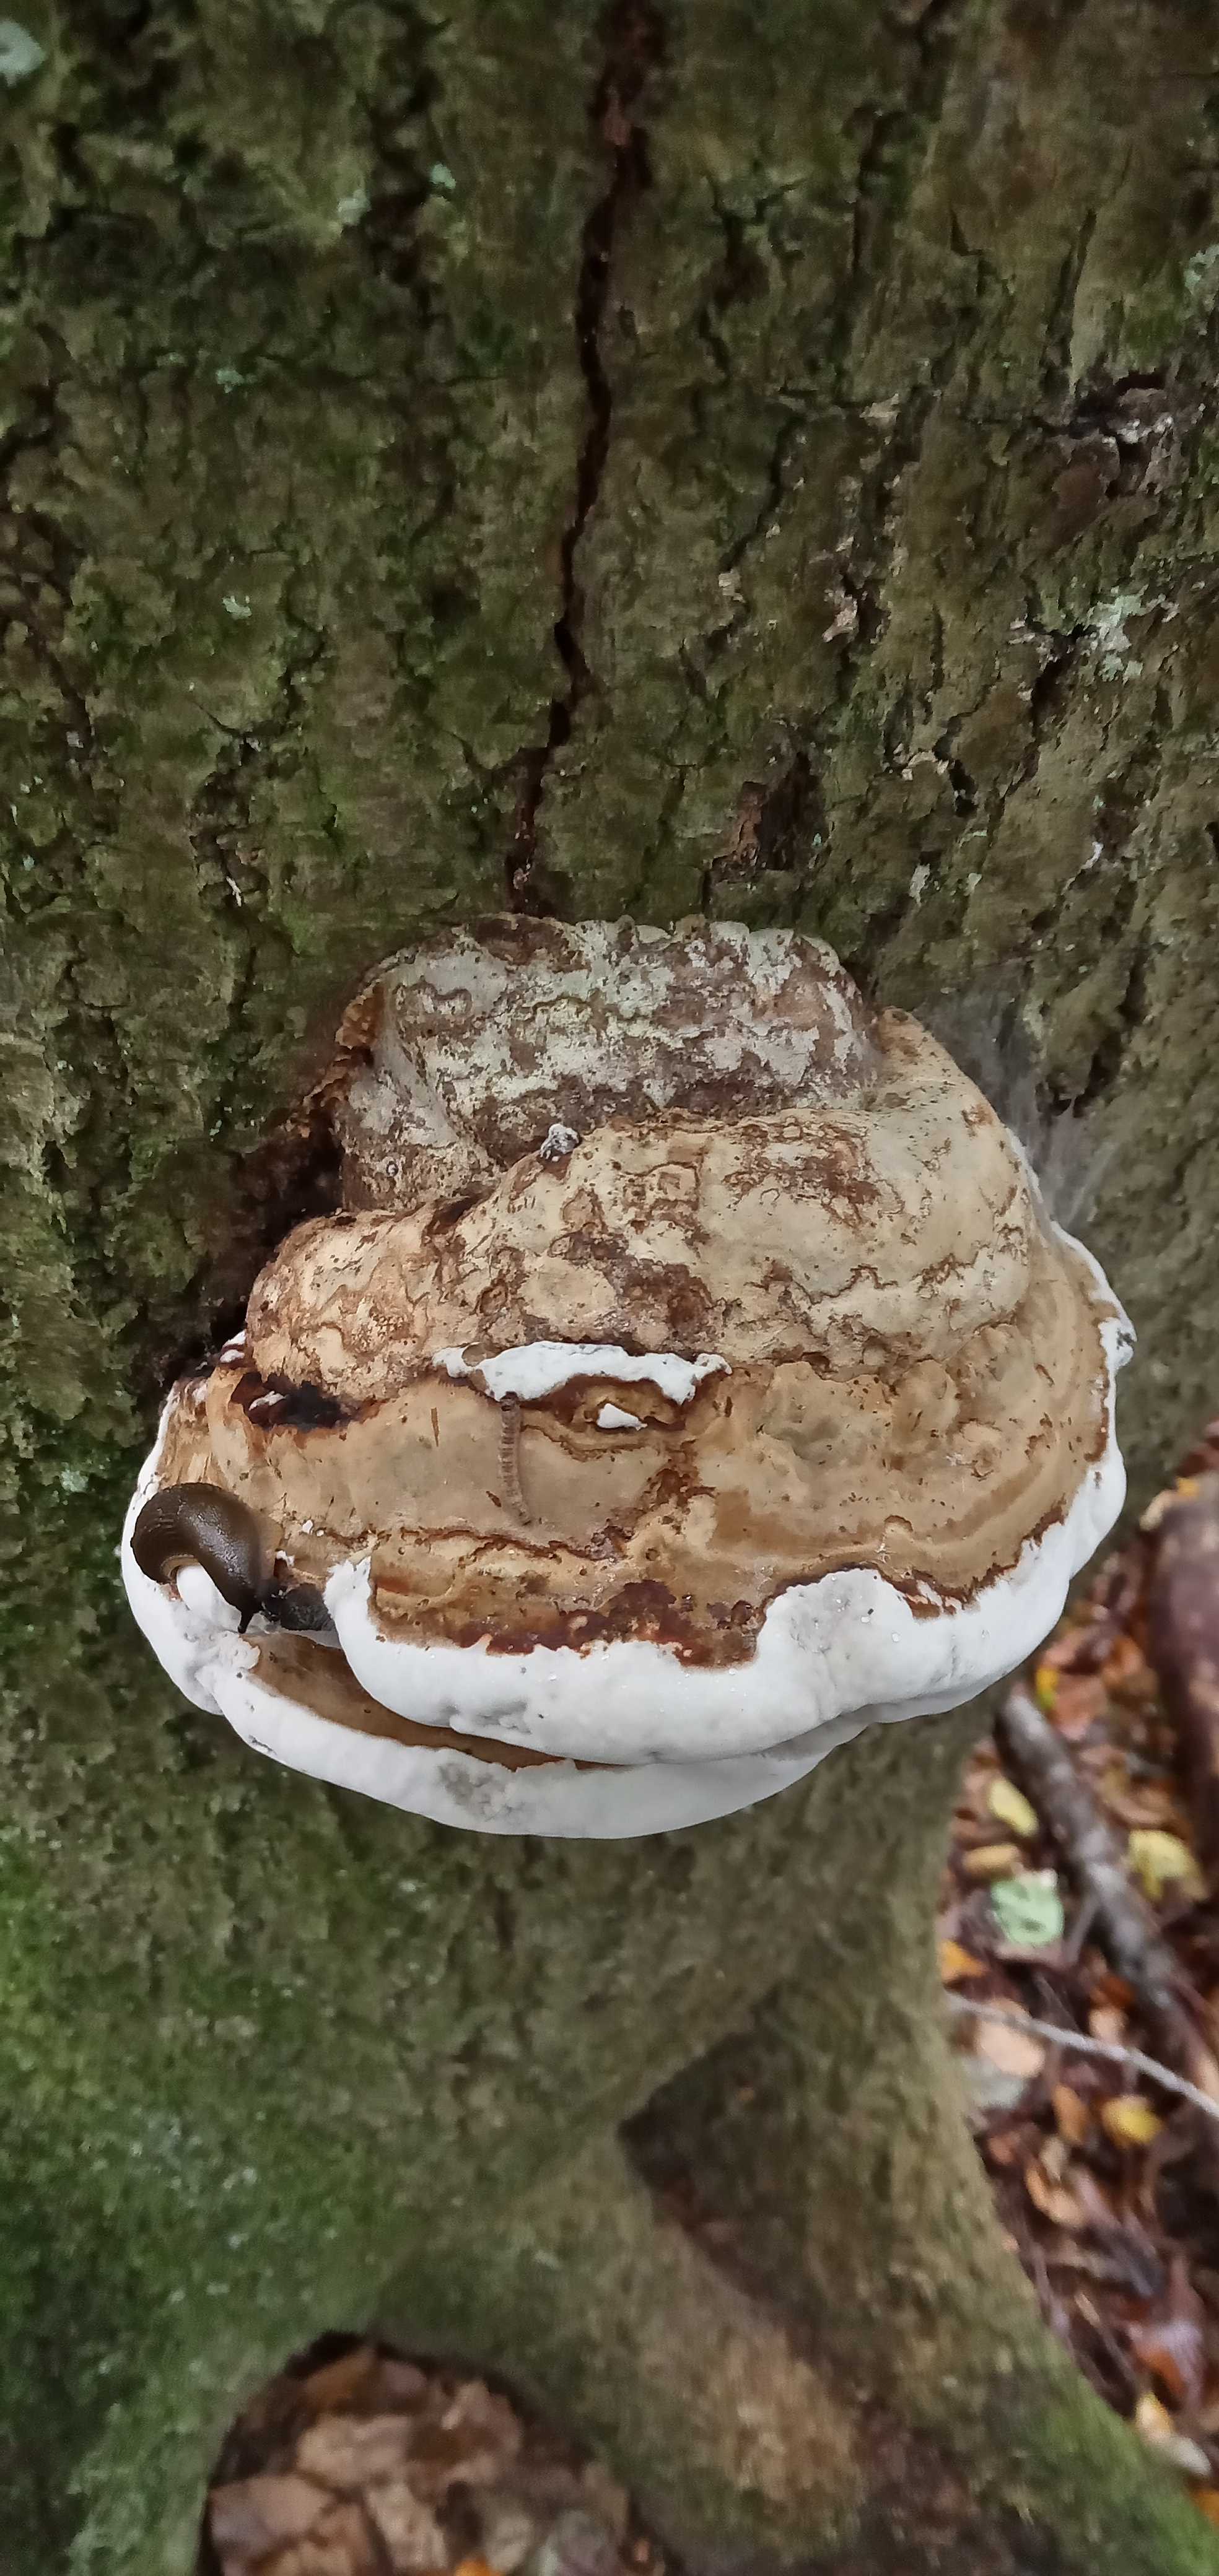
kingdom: Fungi
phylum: Basidiomycota
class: Agaricomycetes
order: Polyporales
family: Polyporaceae
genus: Fomes
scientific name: Fomes fomentarius
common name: tøndersvamp
